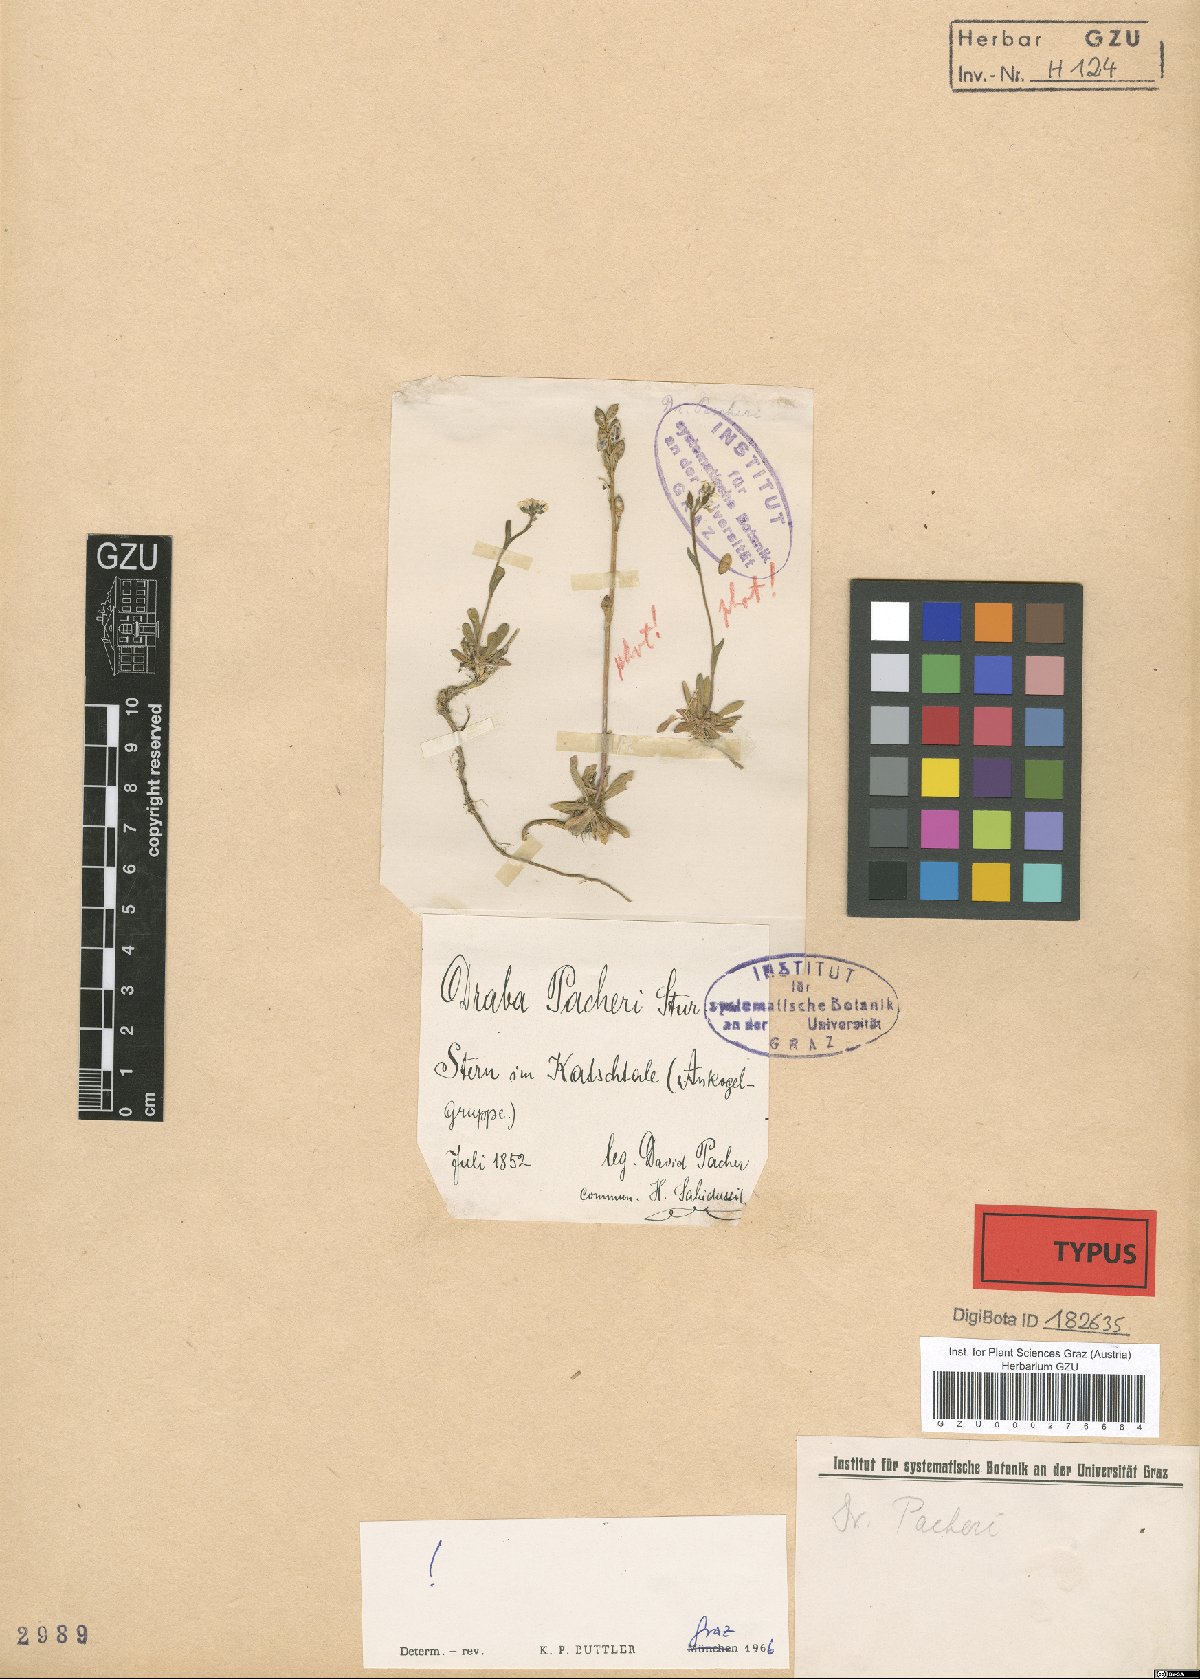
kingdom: Plantae
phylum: Tracheophyta
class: Magnoliopsida
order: Brassicales
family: Brassicaceae
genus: Draba
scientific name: Draba pacheri
